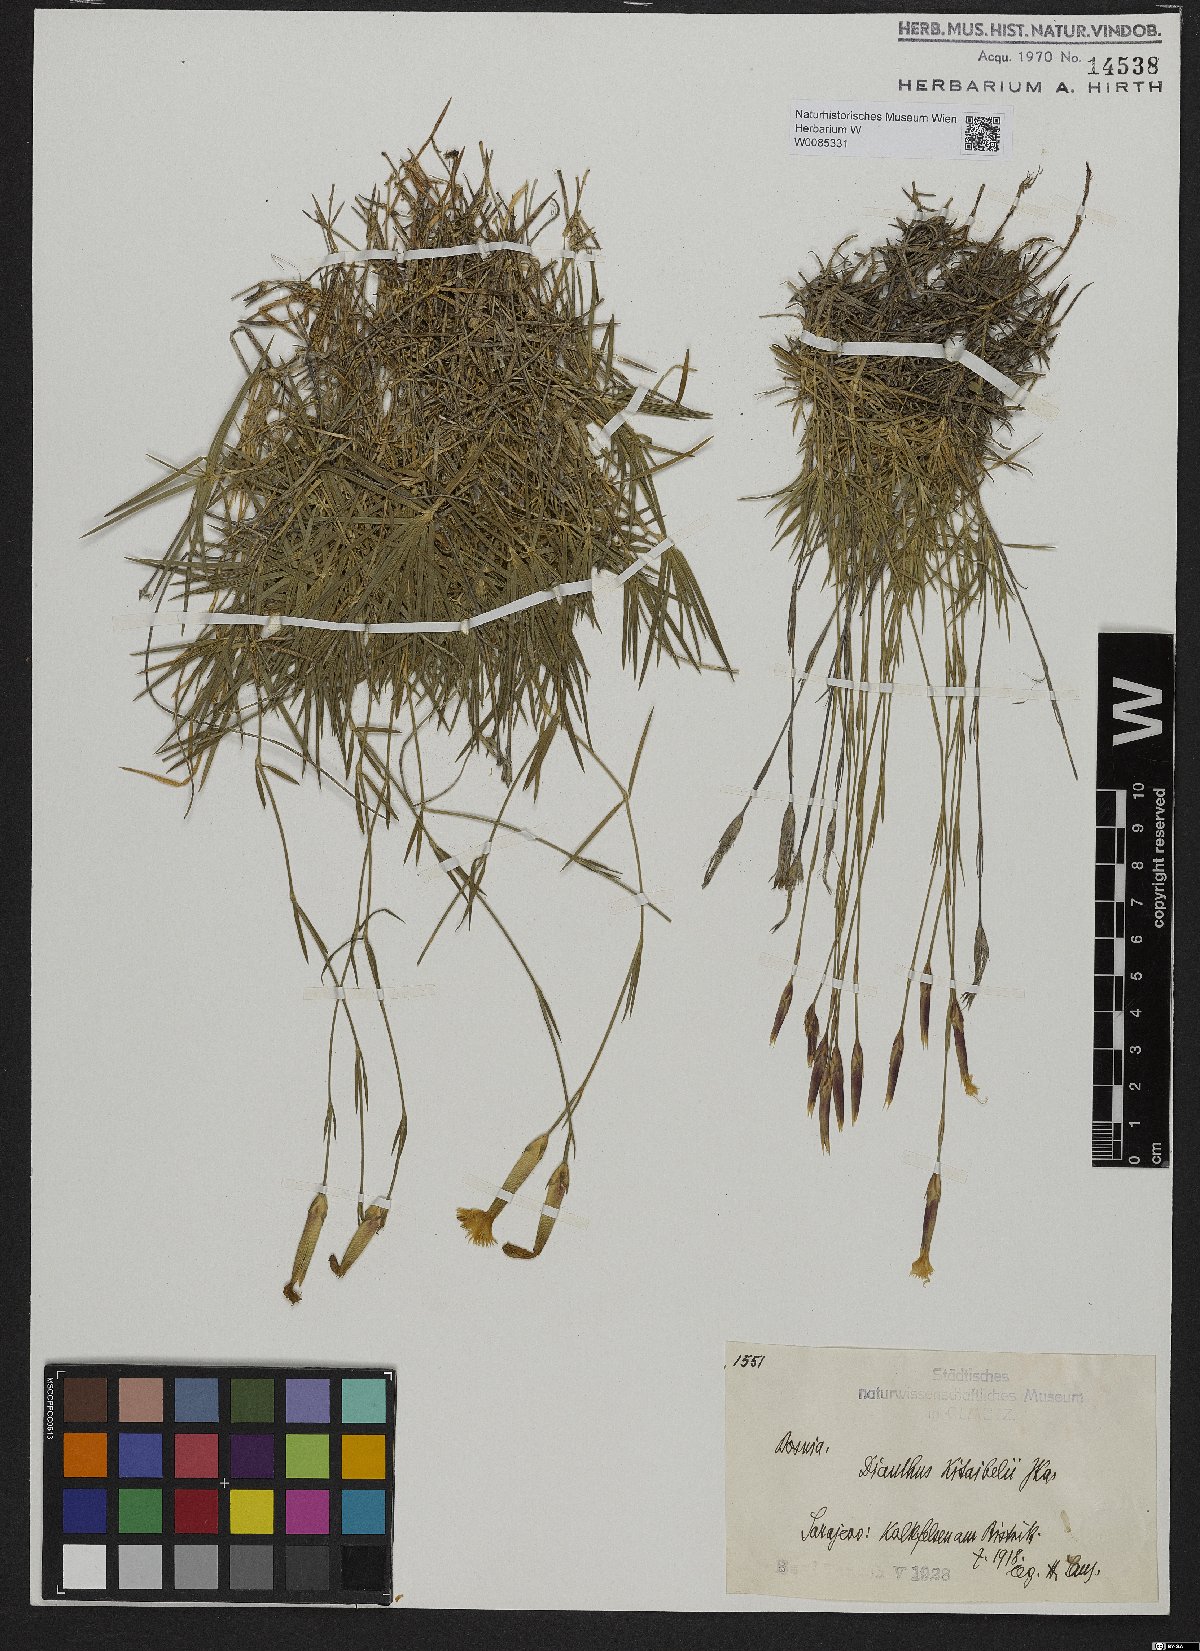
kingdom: Plantae
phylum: Tracheophyta
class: Magnoliopsida
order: Caryophyllales
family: Caryophyllaceae
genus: Dianthus
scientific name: Dianthus petraeus
